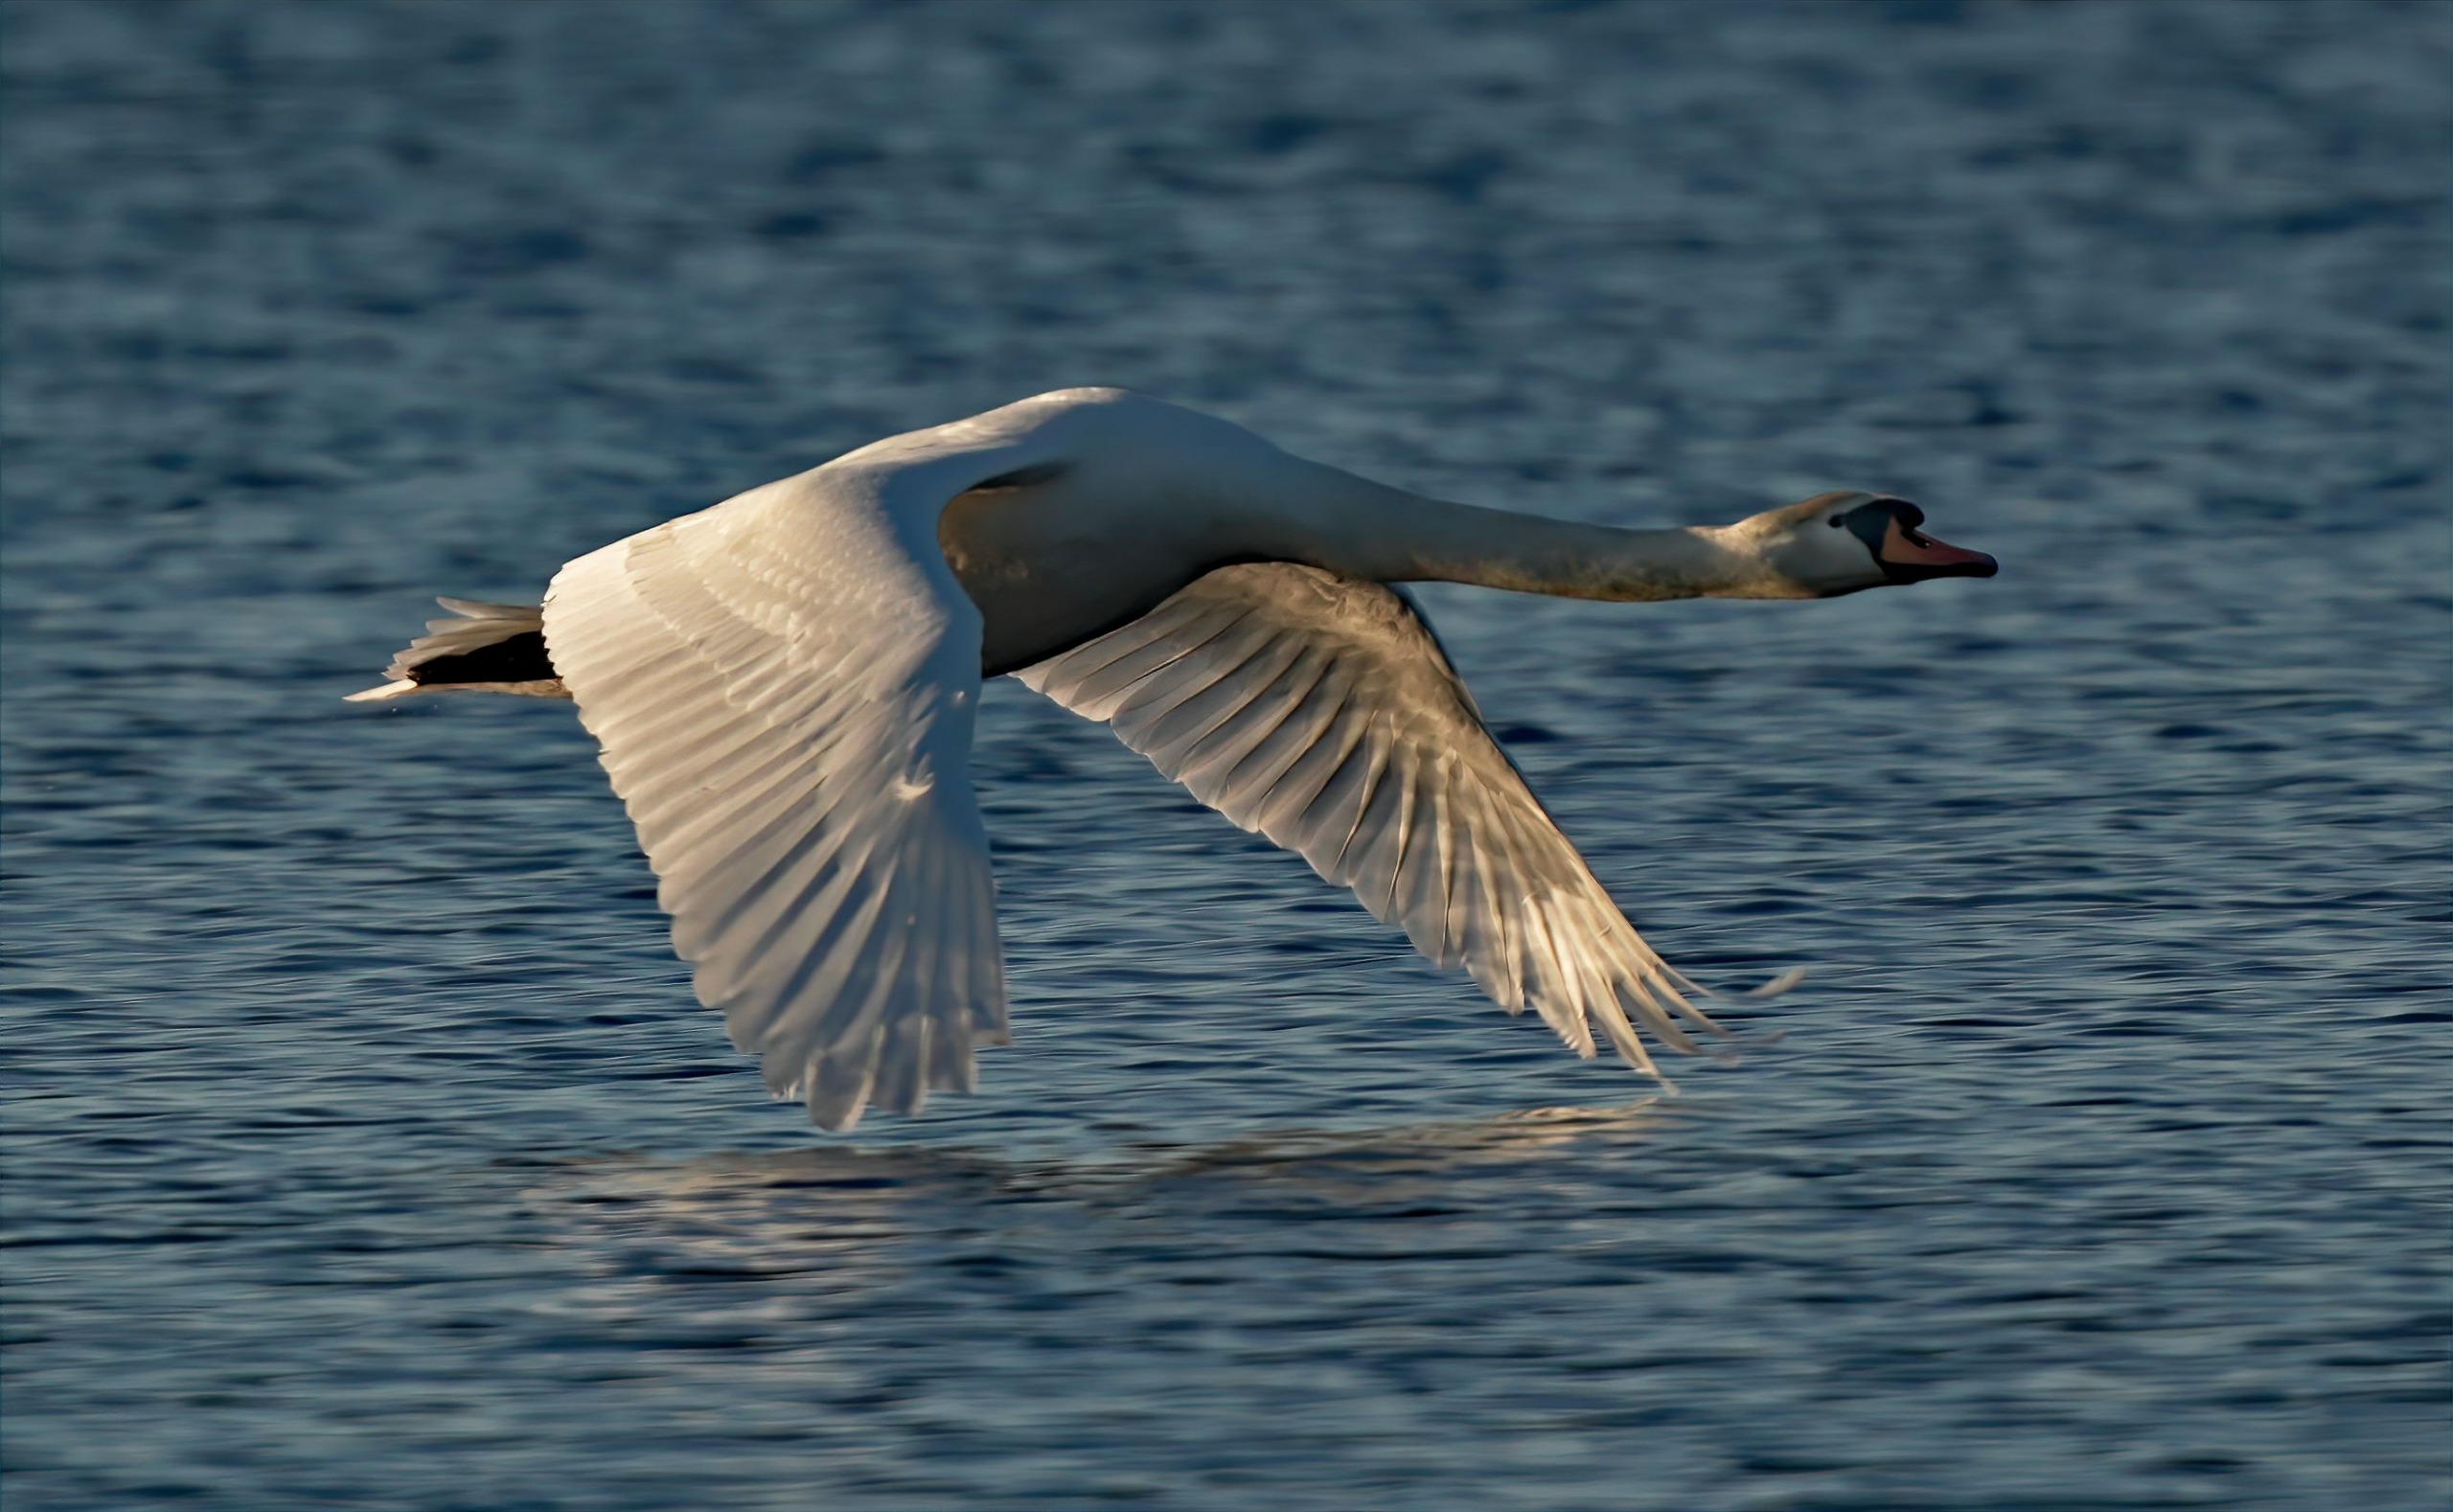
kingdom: Animalia
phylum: Chordata
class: Aves
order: Anseriformes
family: Anatidae
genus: Cygnus
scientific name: Cygnus olor
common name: Knopsvane
